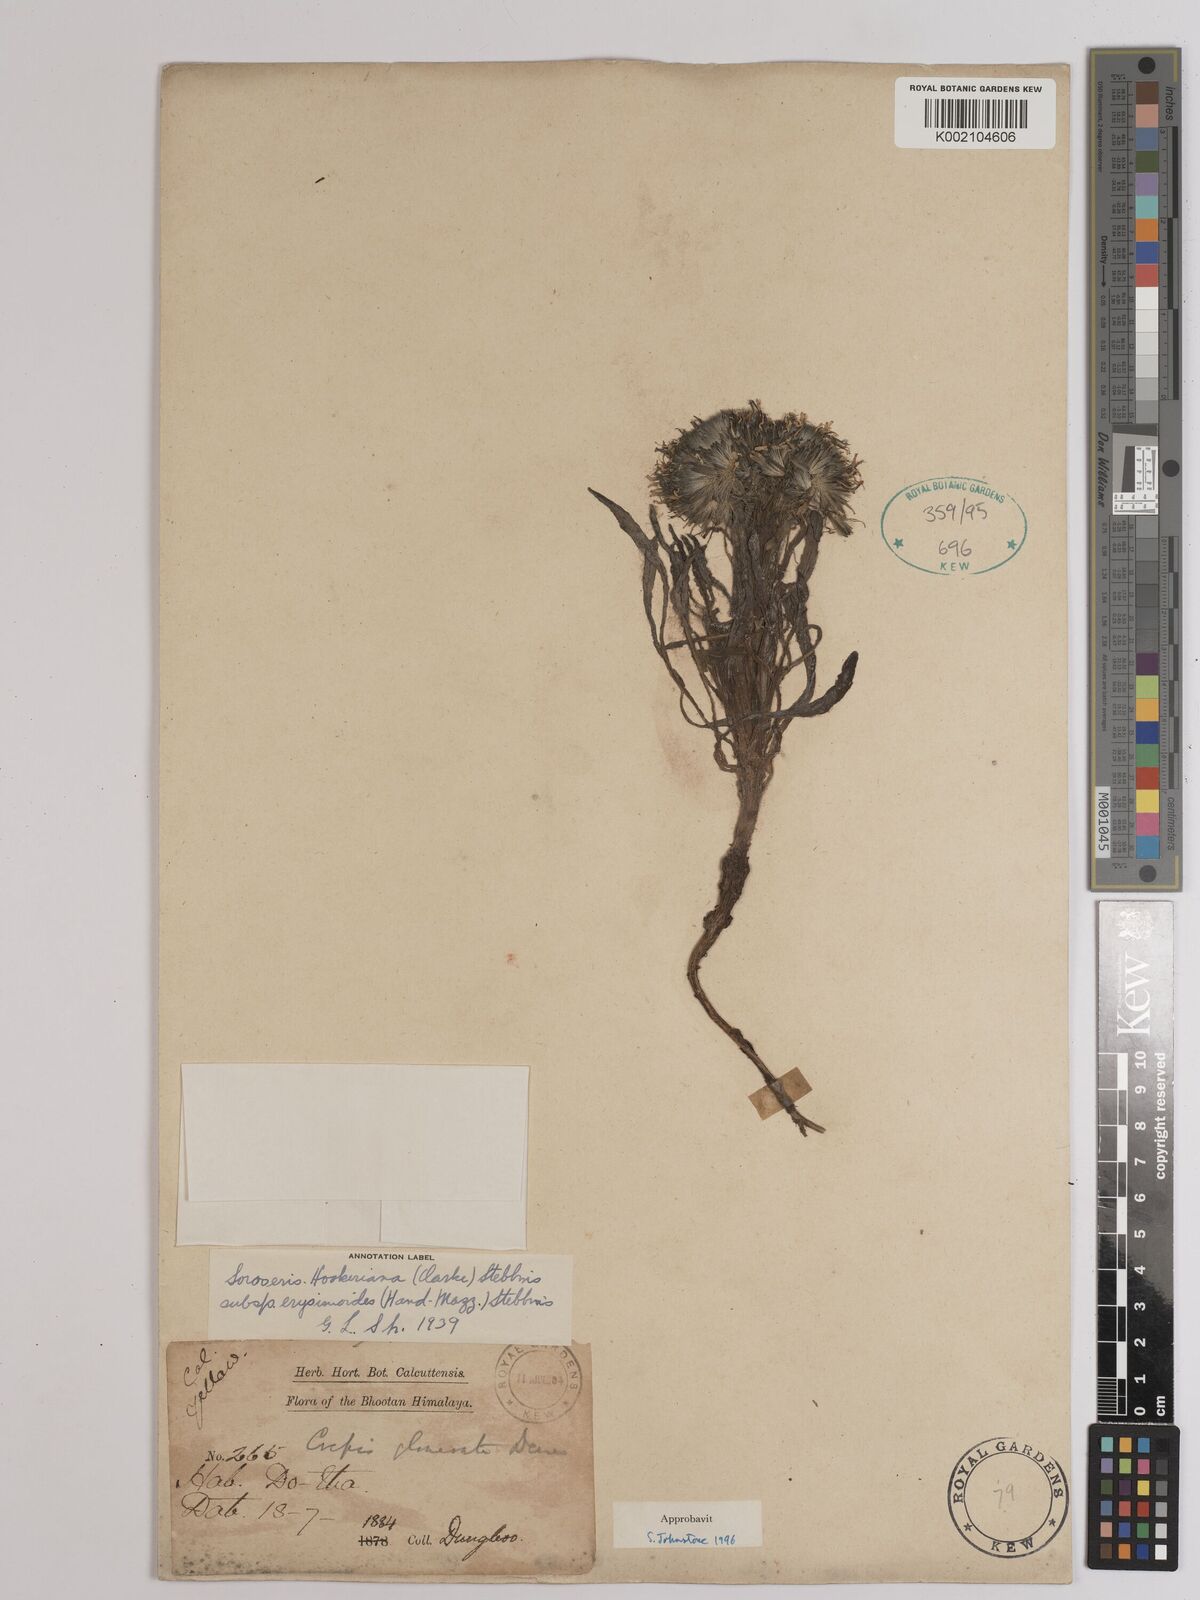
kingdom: Plantae
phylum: Tracheophyta
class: Magnoliopsida
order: Asterales
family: Asteraceae
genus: Soroseris
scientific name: Soroseris hookeriana
